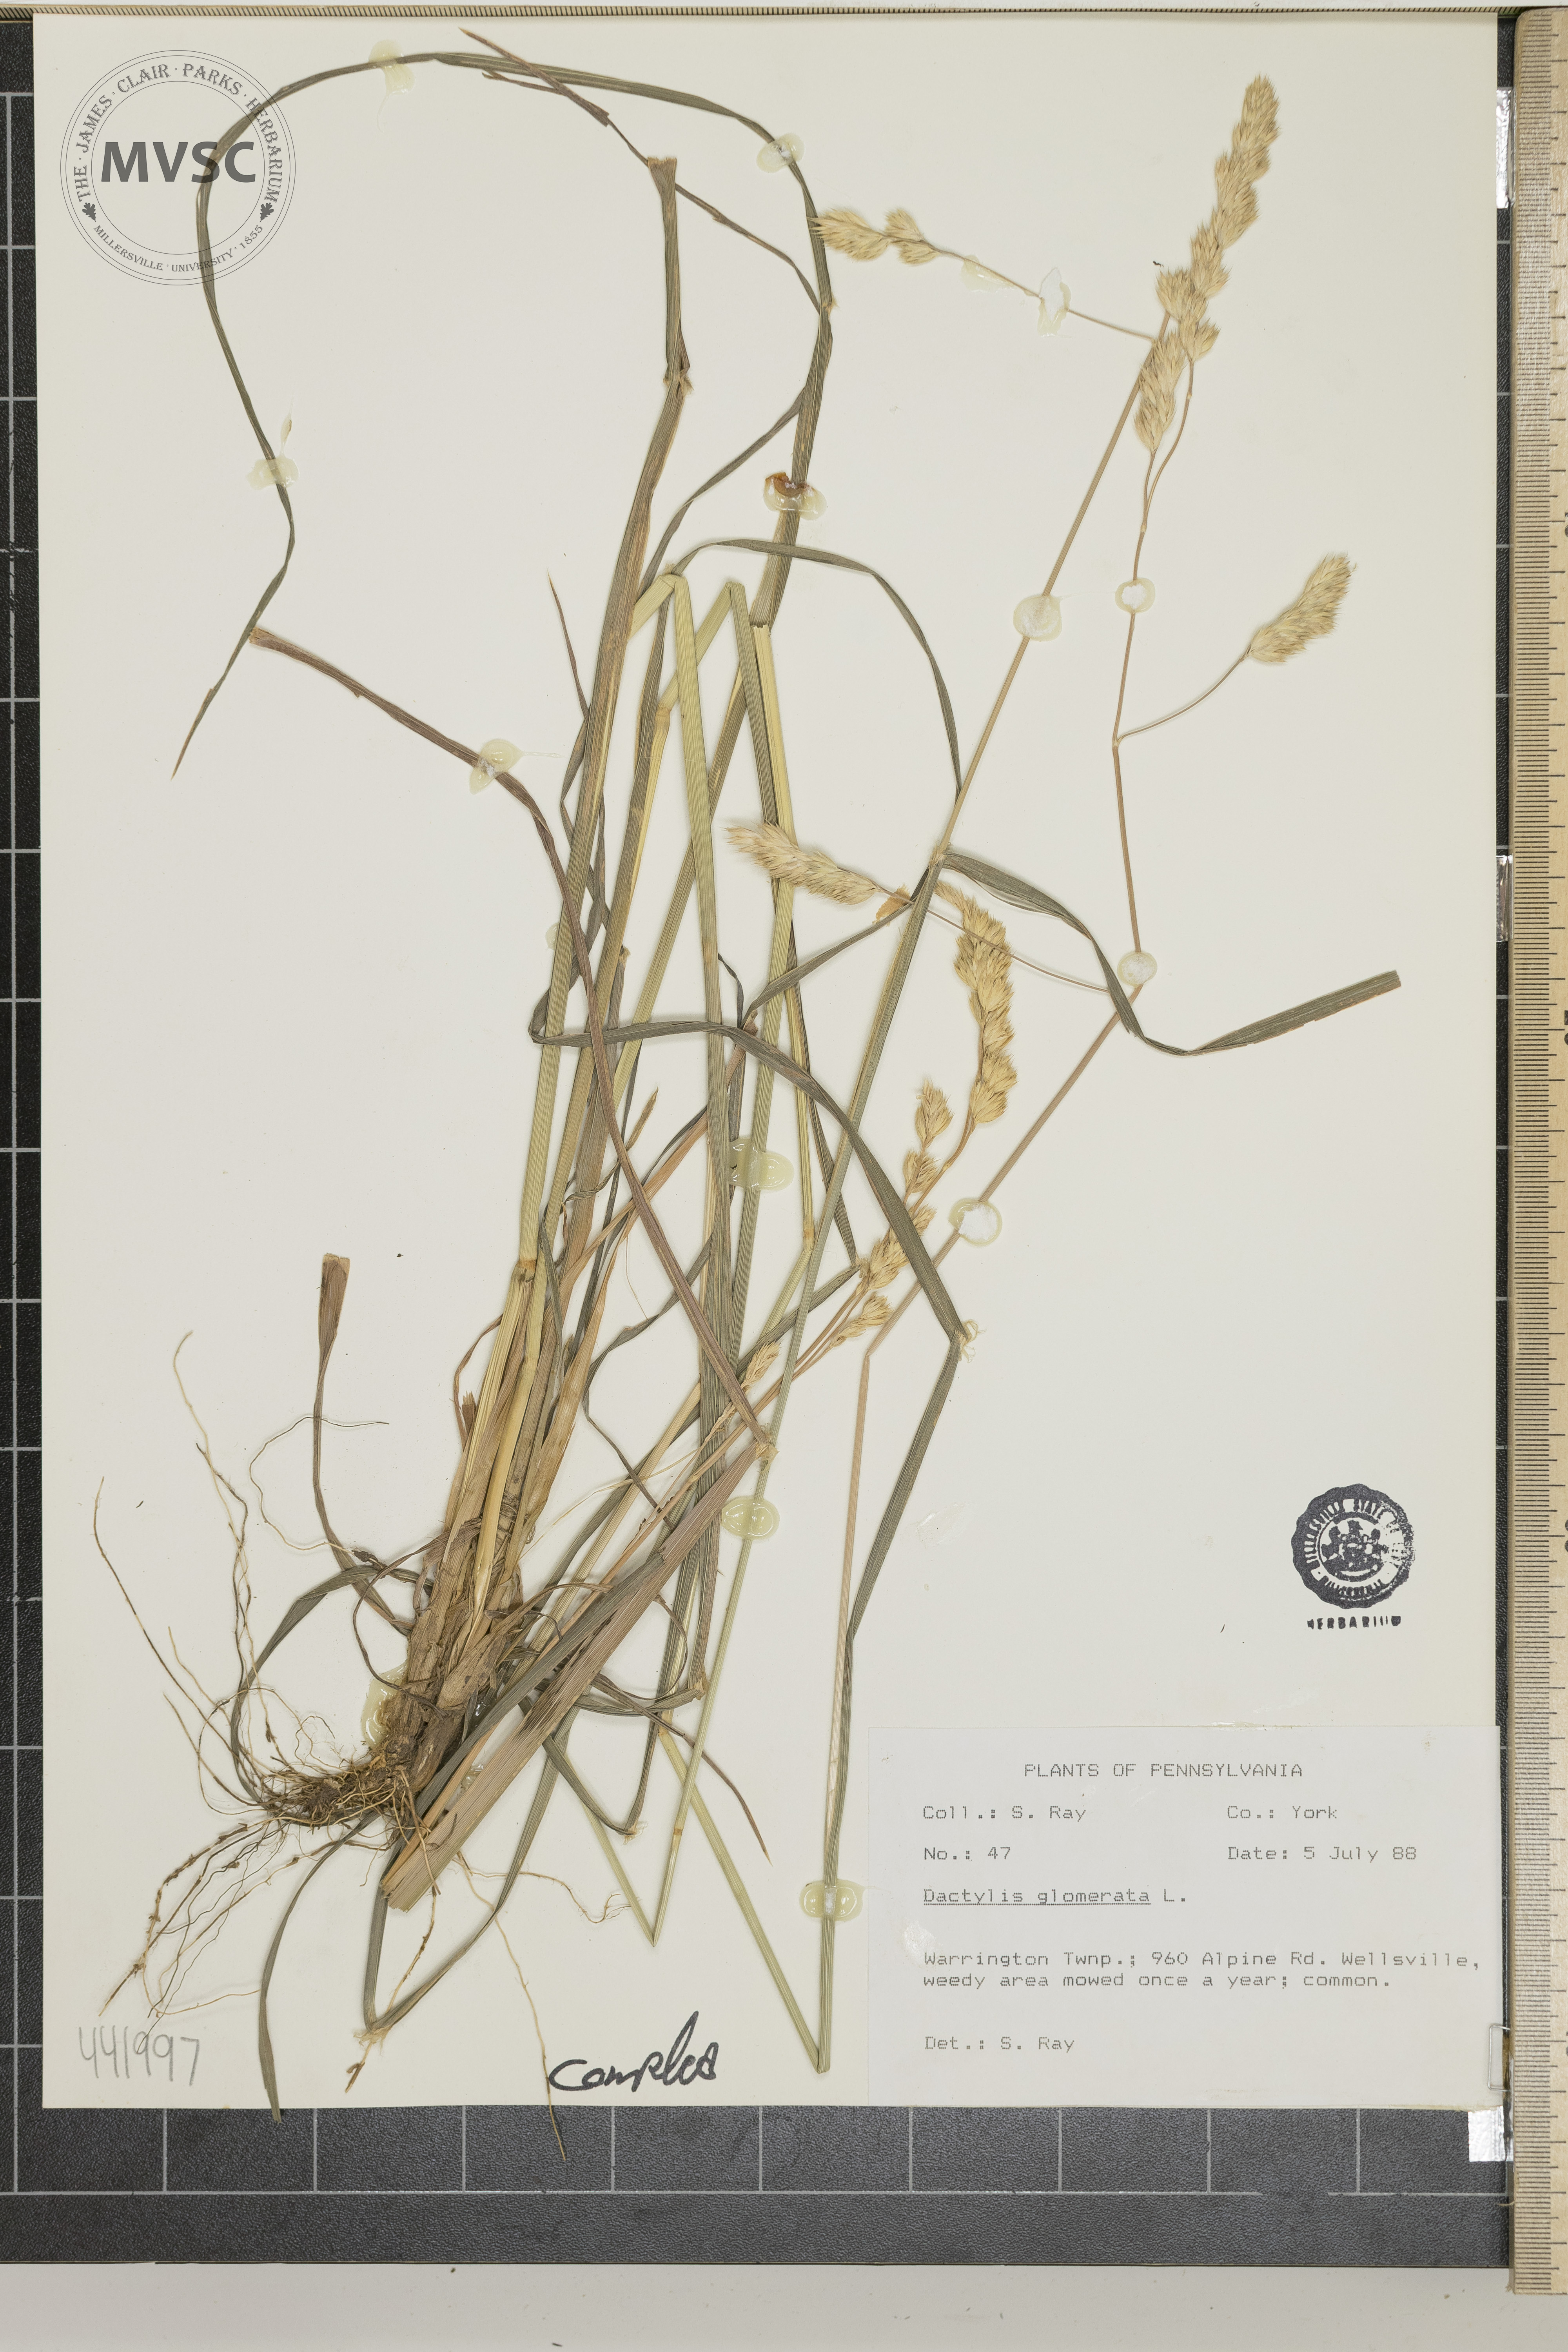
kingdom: Plantae
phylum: Tracheophyta
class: Liliopsida
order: Poales
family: Poaceae
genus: Dactylis
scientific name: Dactylis glomerata
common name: Orchardgrass
